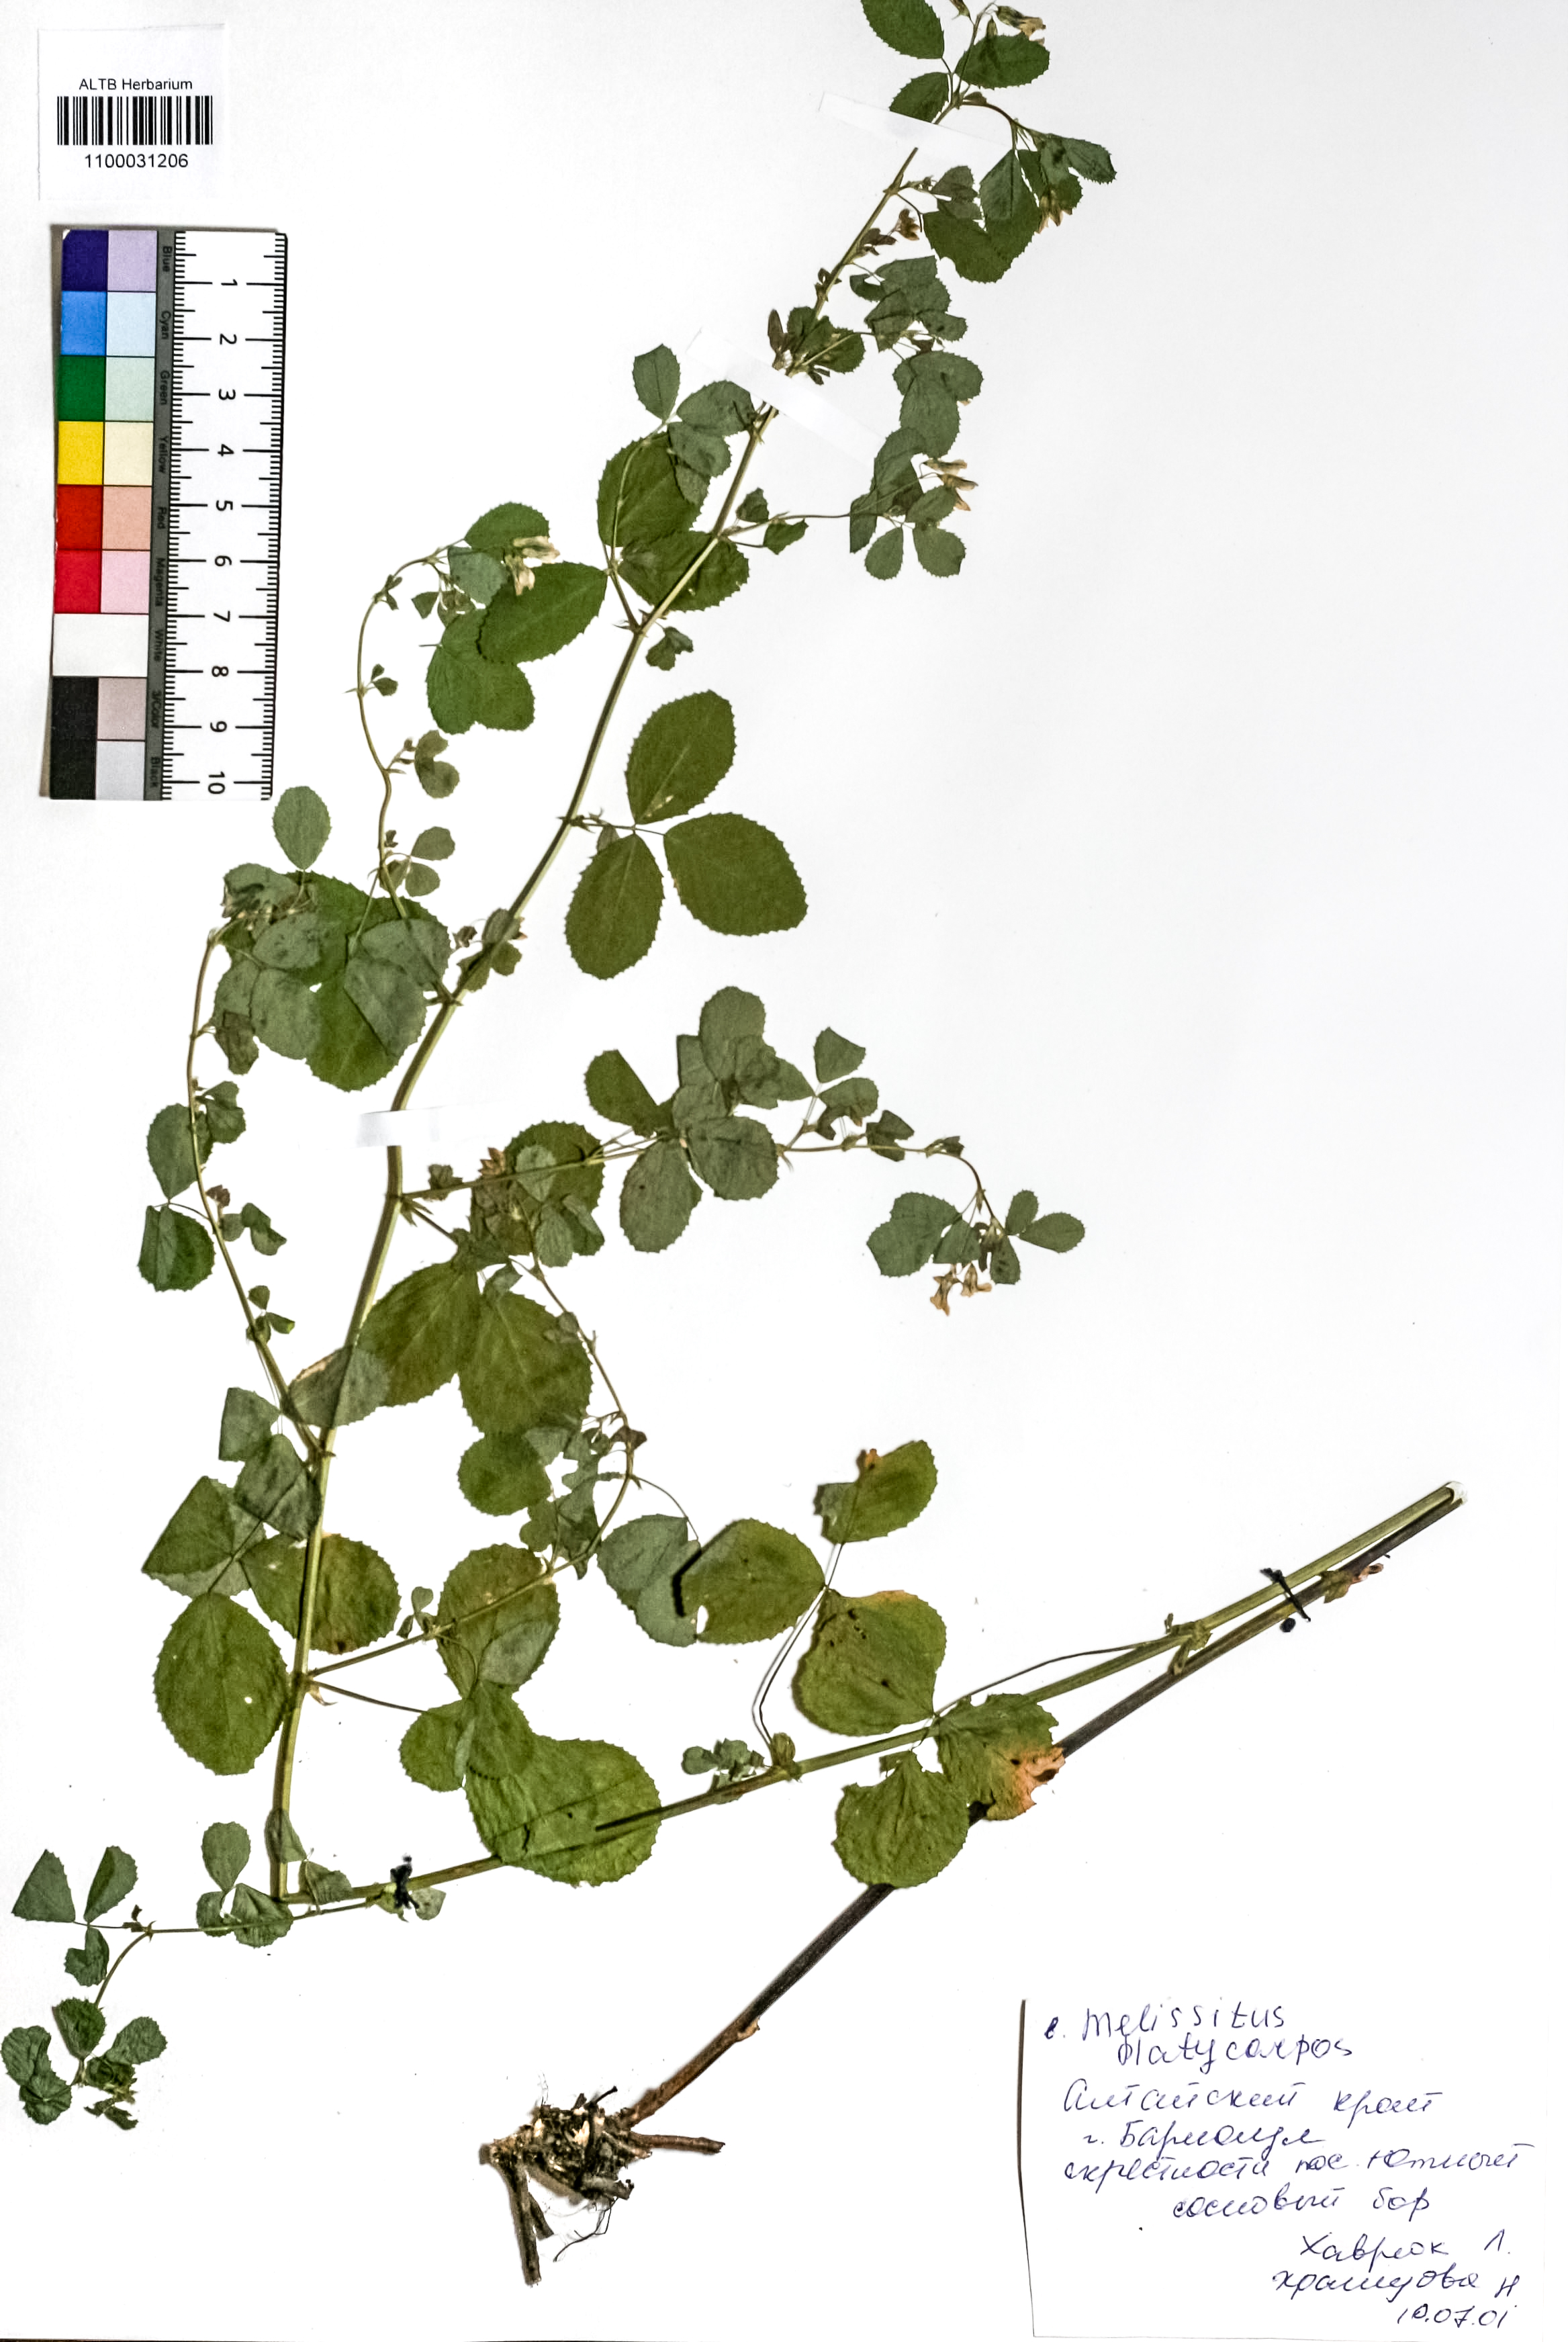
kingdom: Plantae
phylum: Tracheophyta
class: Magnoliopsida
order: Fabales
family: Fabaceae
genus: Medicago
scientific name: Medicago platycarpos
